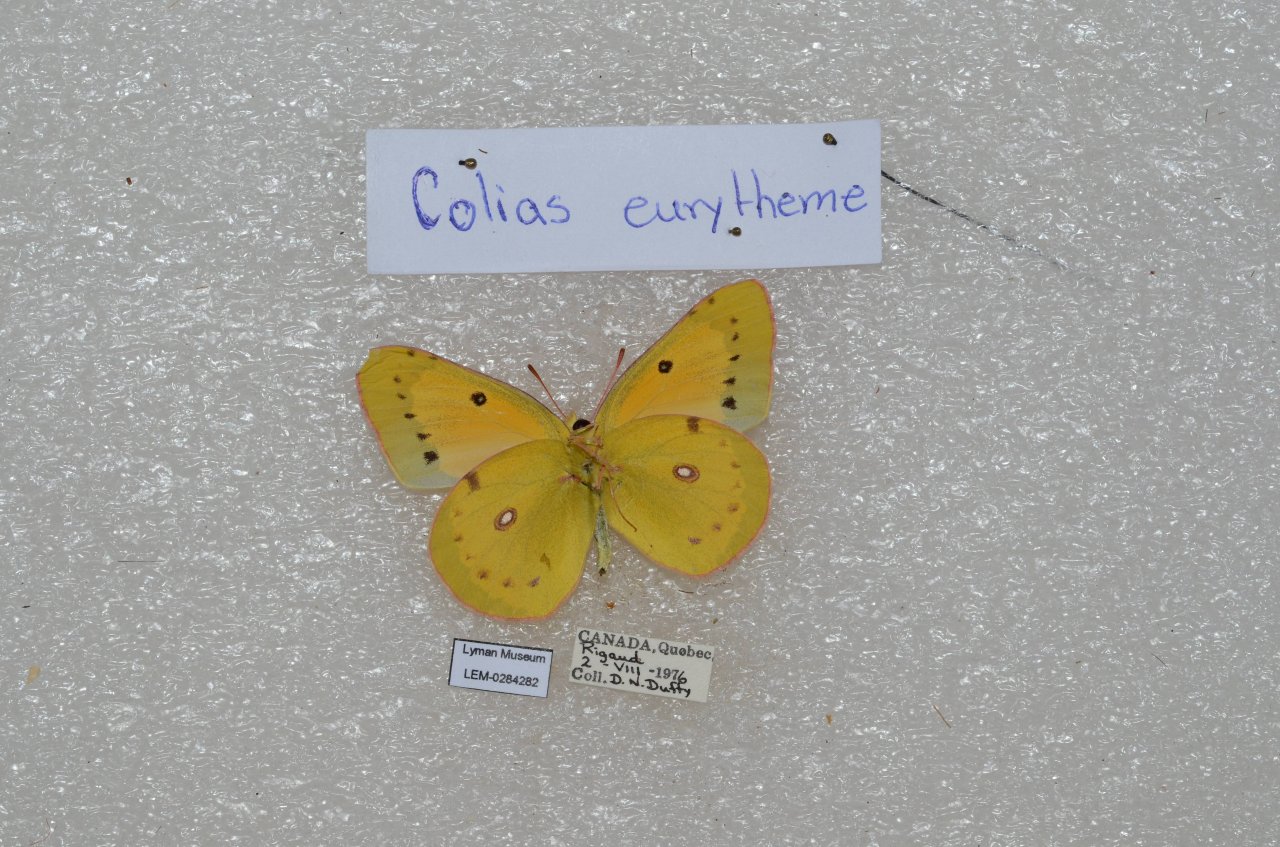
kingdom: Animalia
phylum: Arthropoda
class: Insecta
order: Lepidoptera
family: Pieridae
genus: Colias
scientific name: Colias eurytheme
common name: Orange Sulphur
